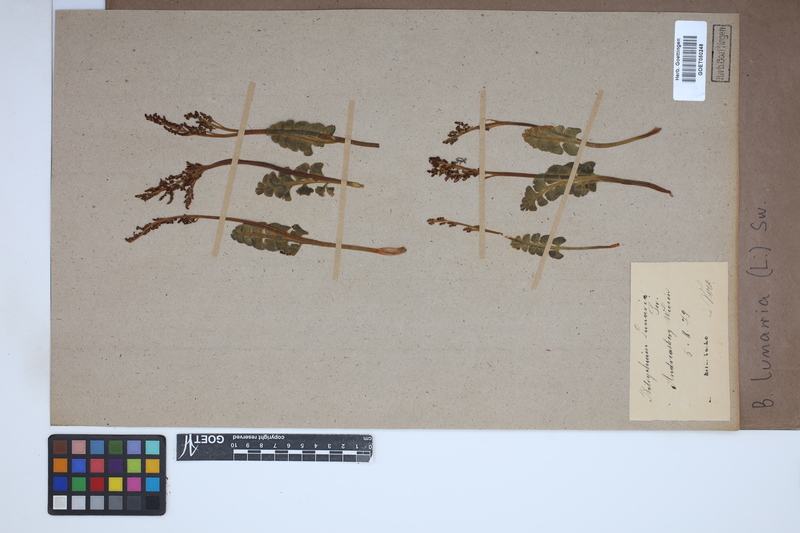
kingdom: Plantae
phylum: Tracheophyta
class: Polypodiopsida
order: Ophioglossales
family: Ophioglossaceae
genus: Botrychium
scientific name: Botrychium lunaria
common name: Moonwort
